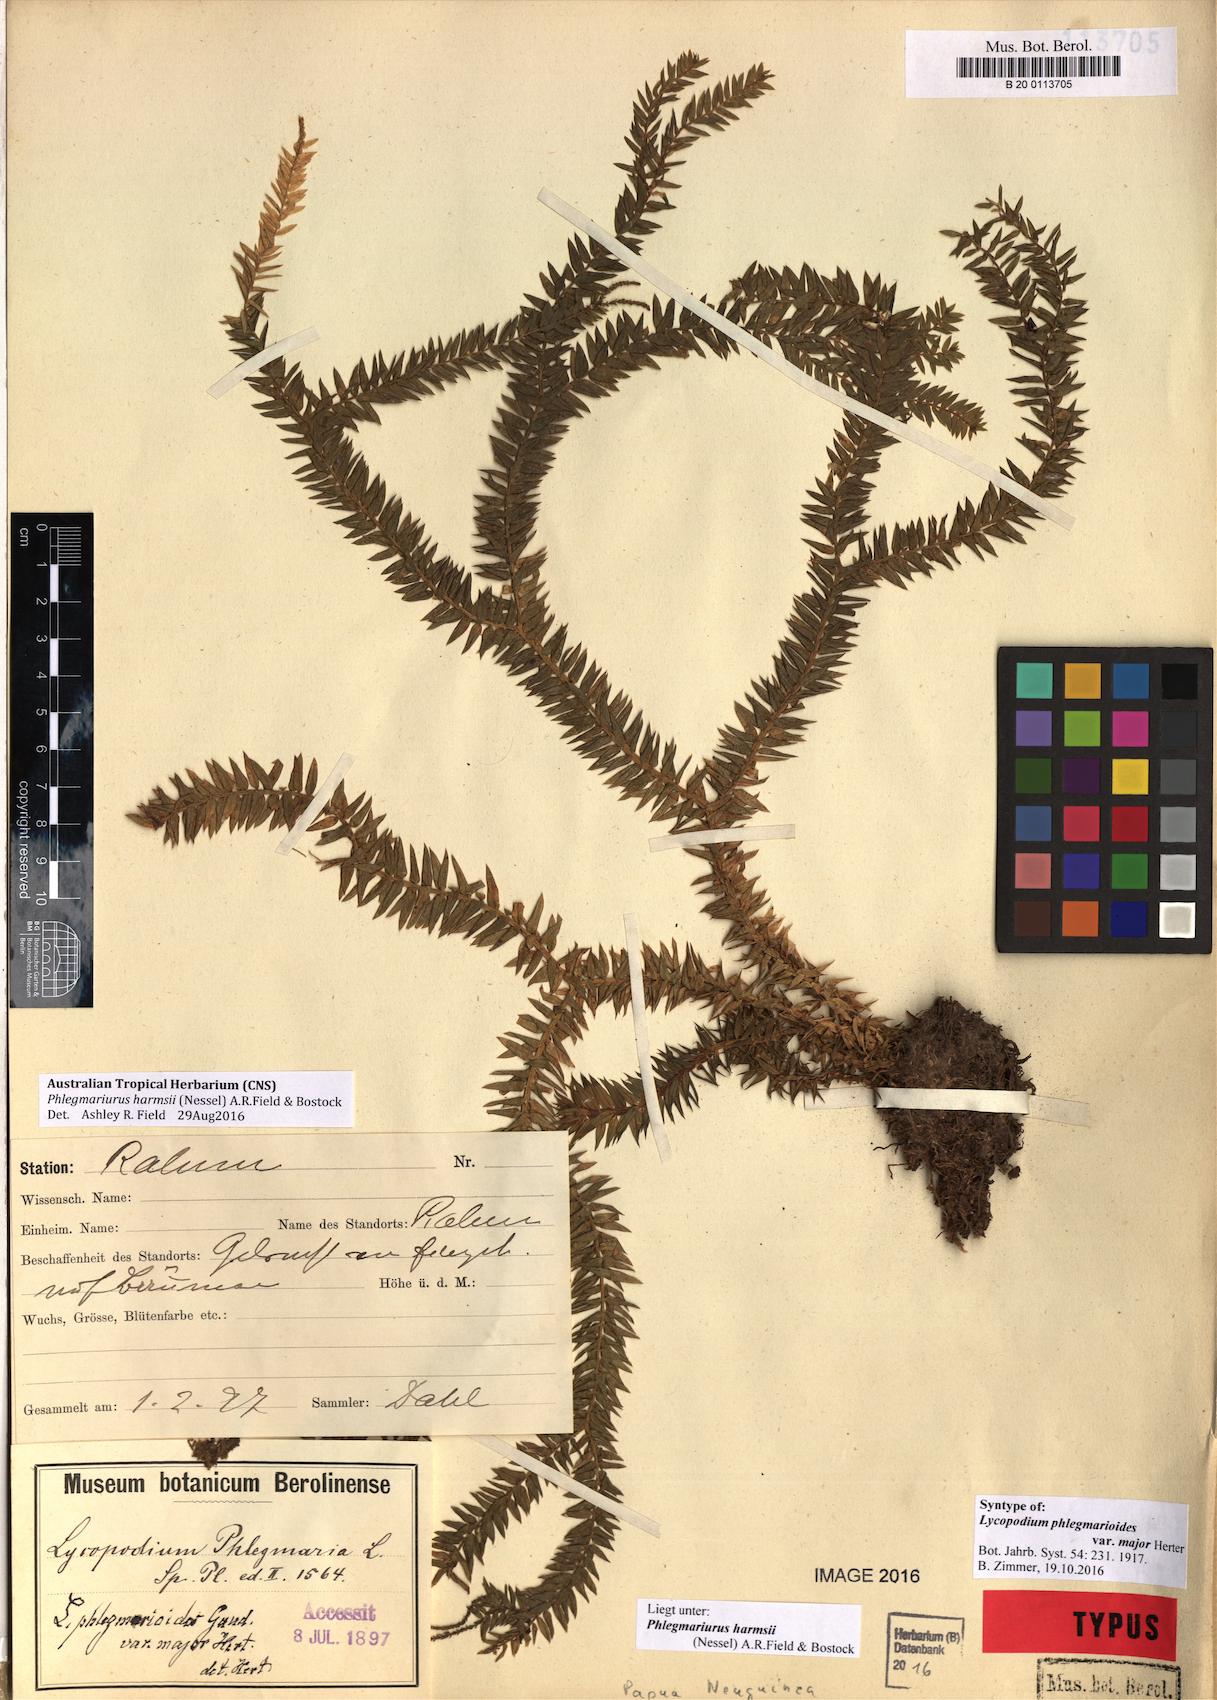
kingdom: Plantae
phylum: Tracheophyta
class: Lycopodiopsida
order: Lycopodiales
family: Lycopodiaceae
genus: Phlegmariurus
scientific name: Phlegmariurus harmsii
